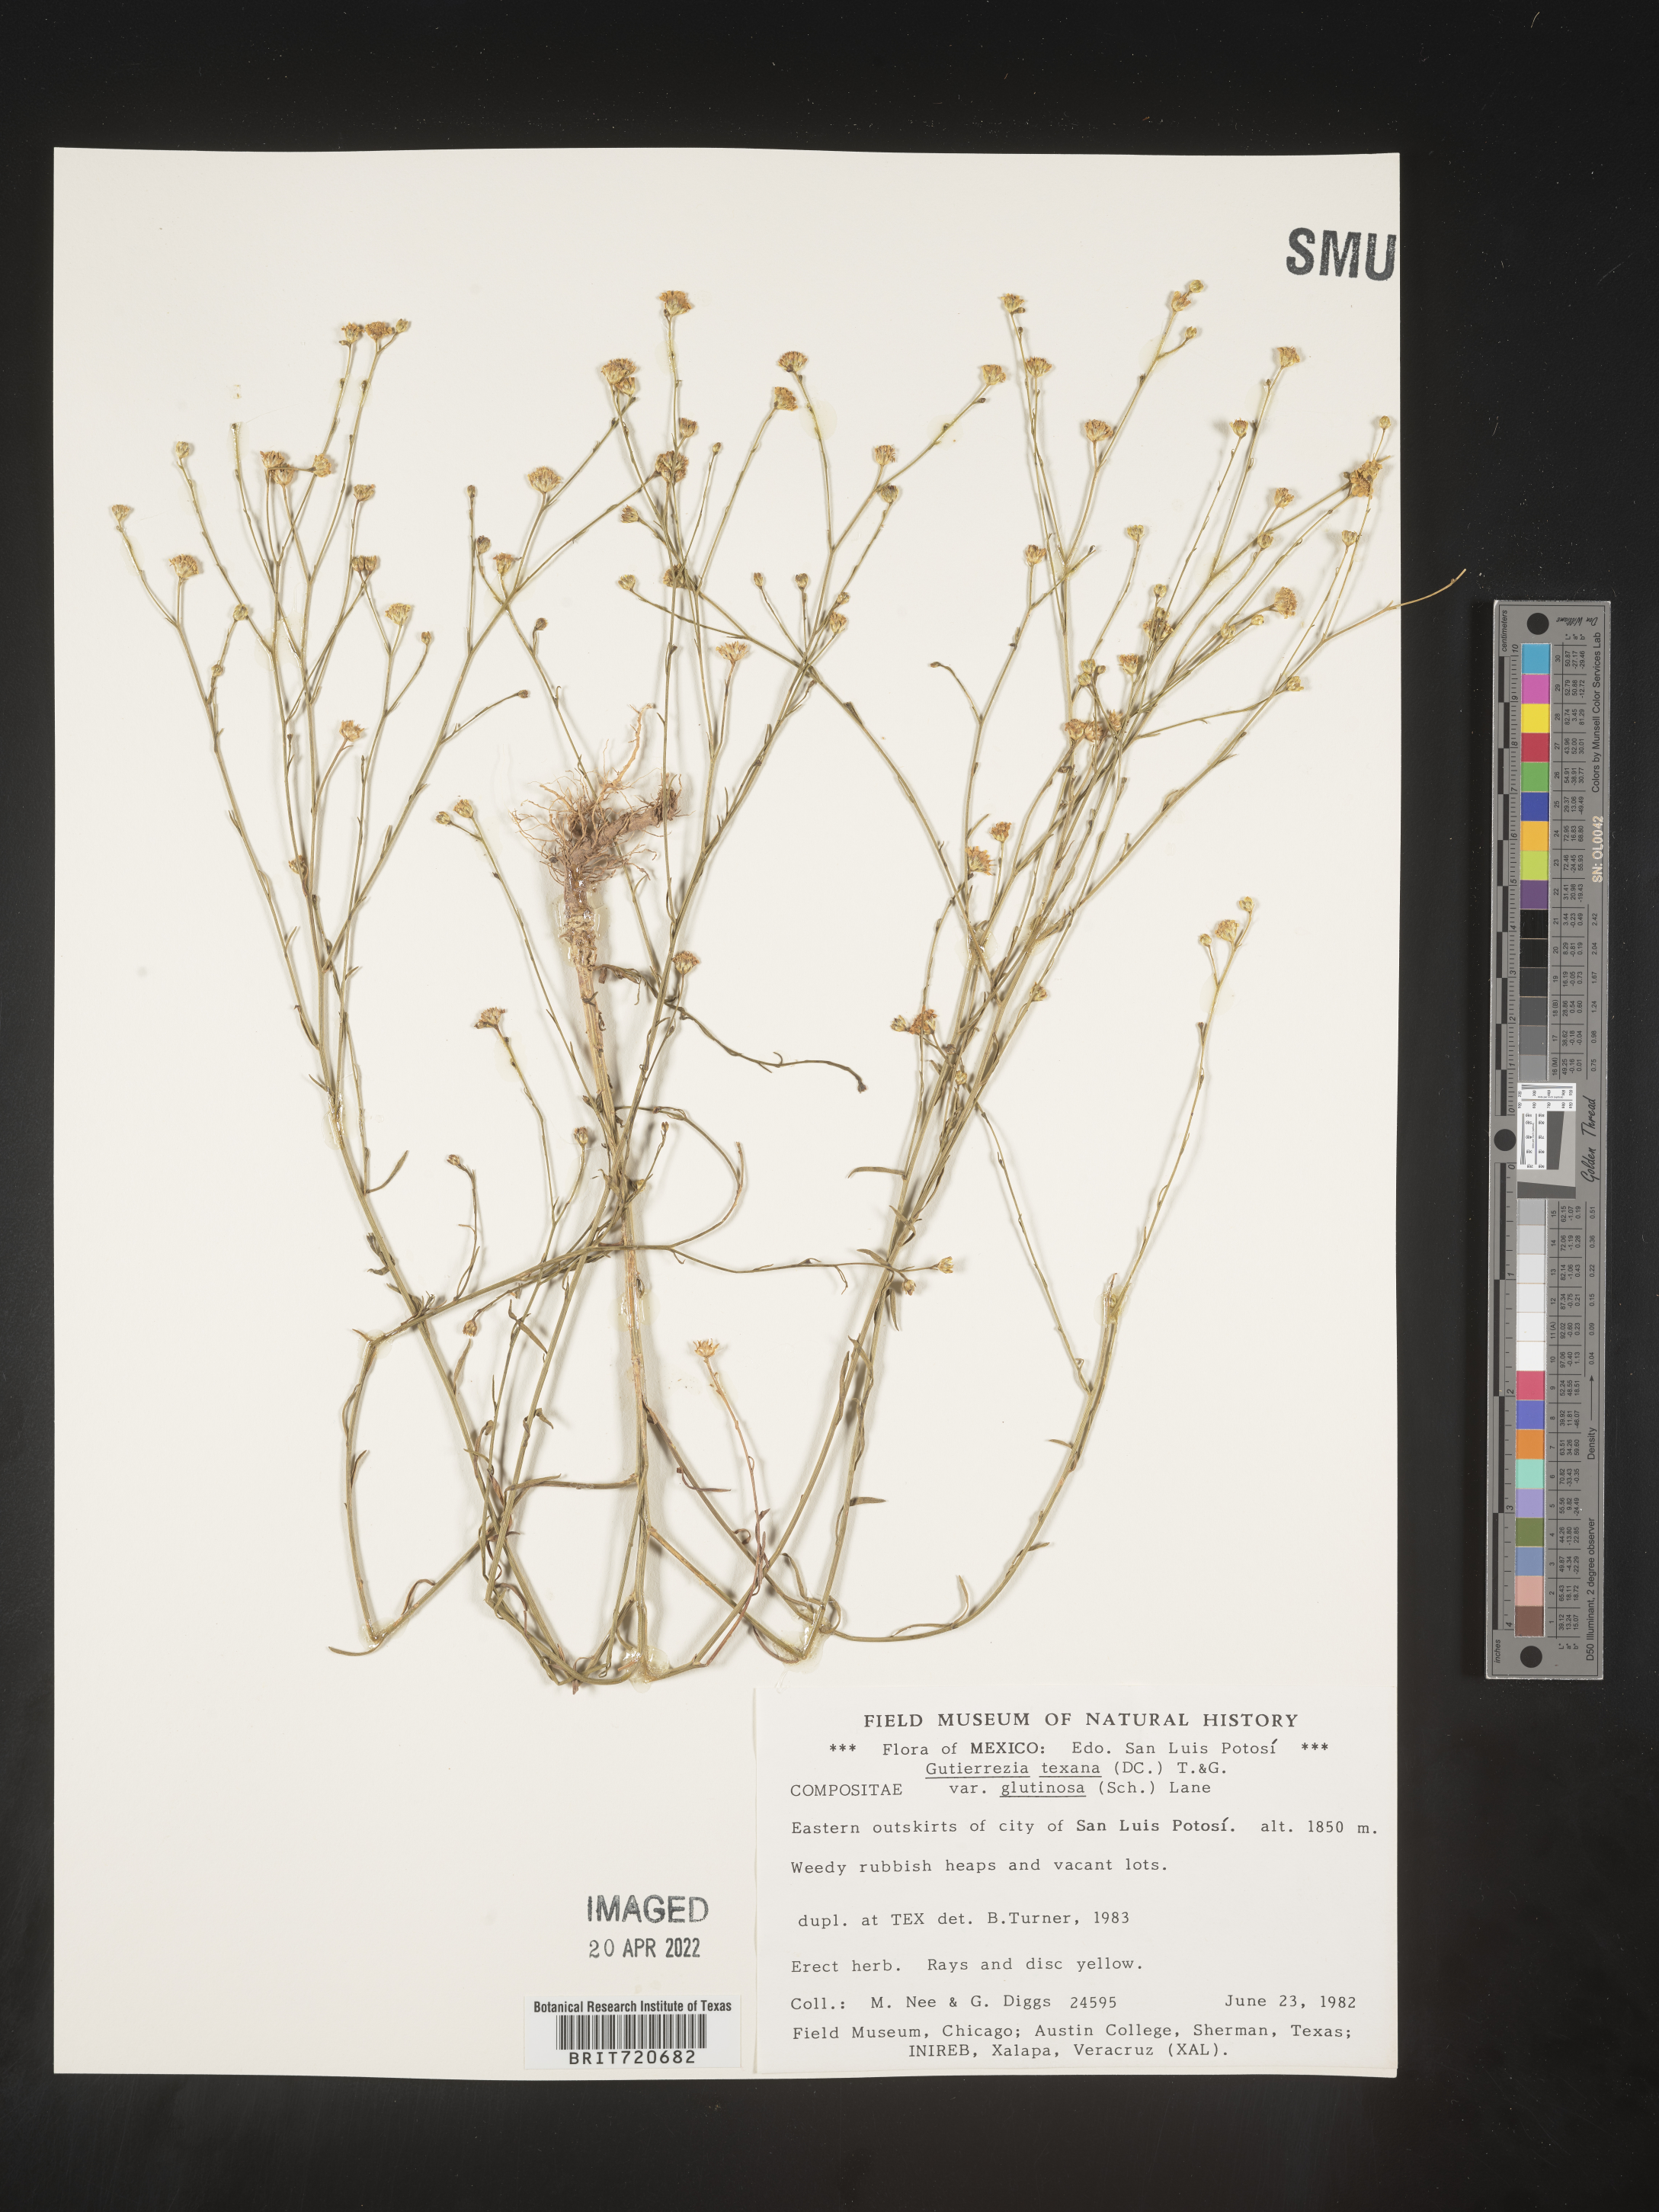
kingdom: Plantae
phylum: Tracheophyta
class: Magnoliopsida
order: Asterales
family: Asteraceae
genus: Gutierrezia
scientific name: Gutierrezia texana
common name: Texas snakeweed
